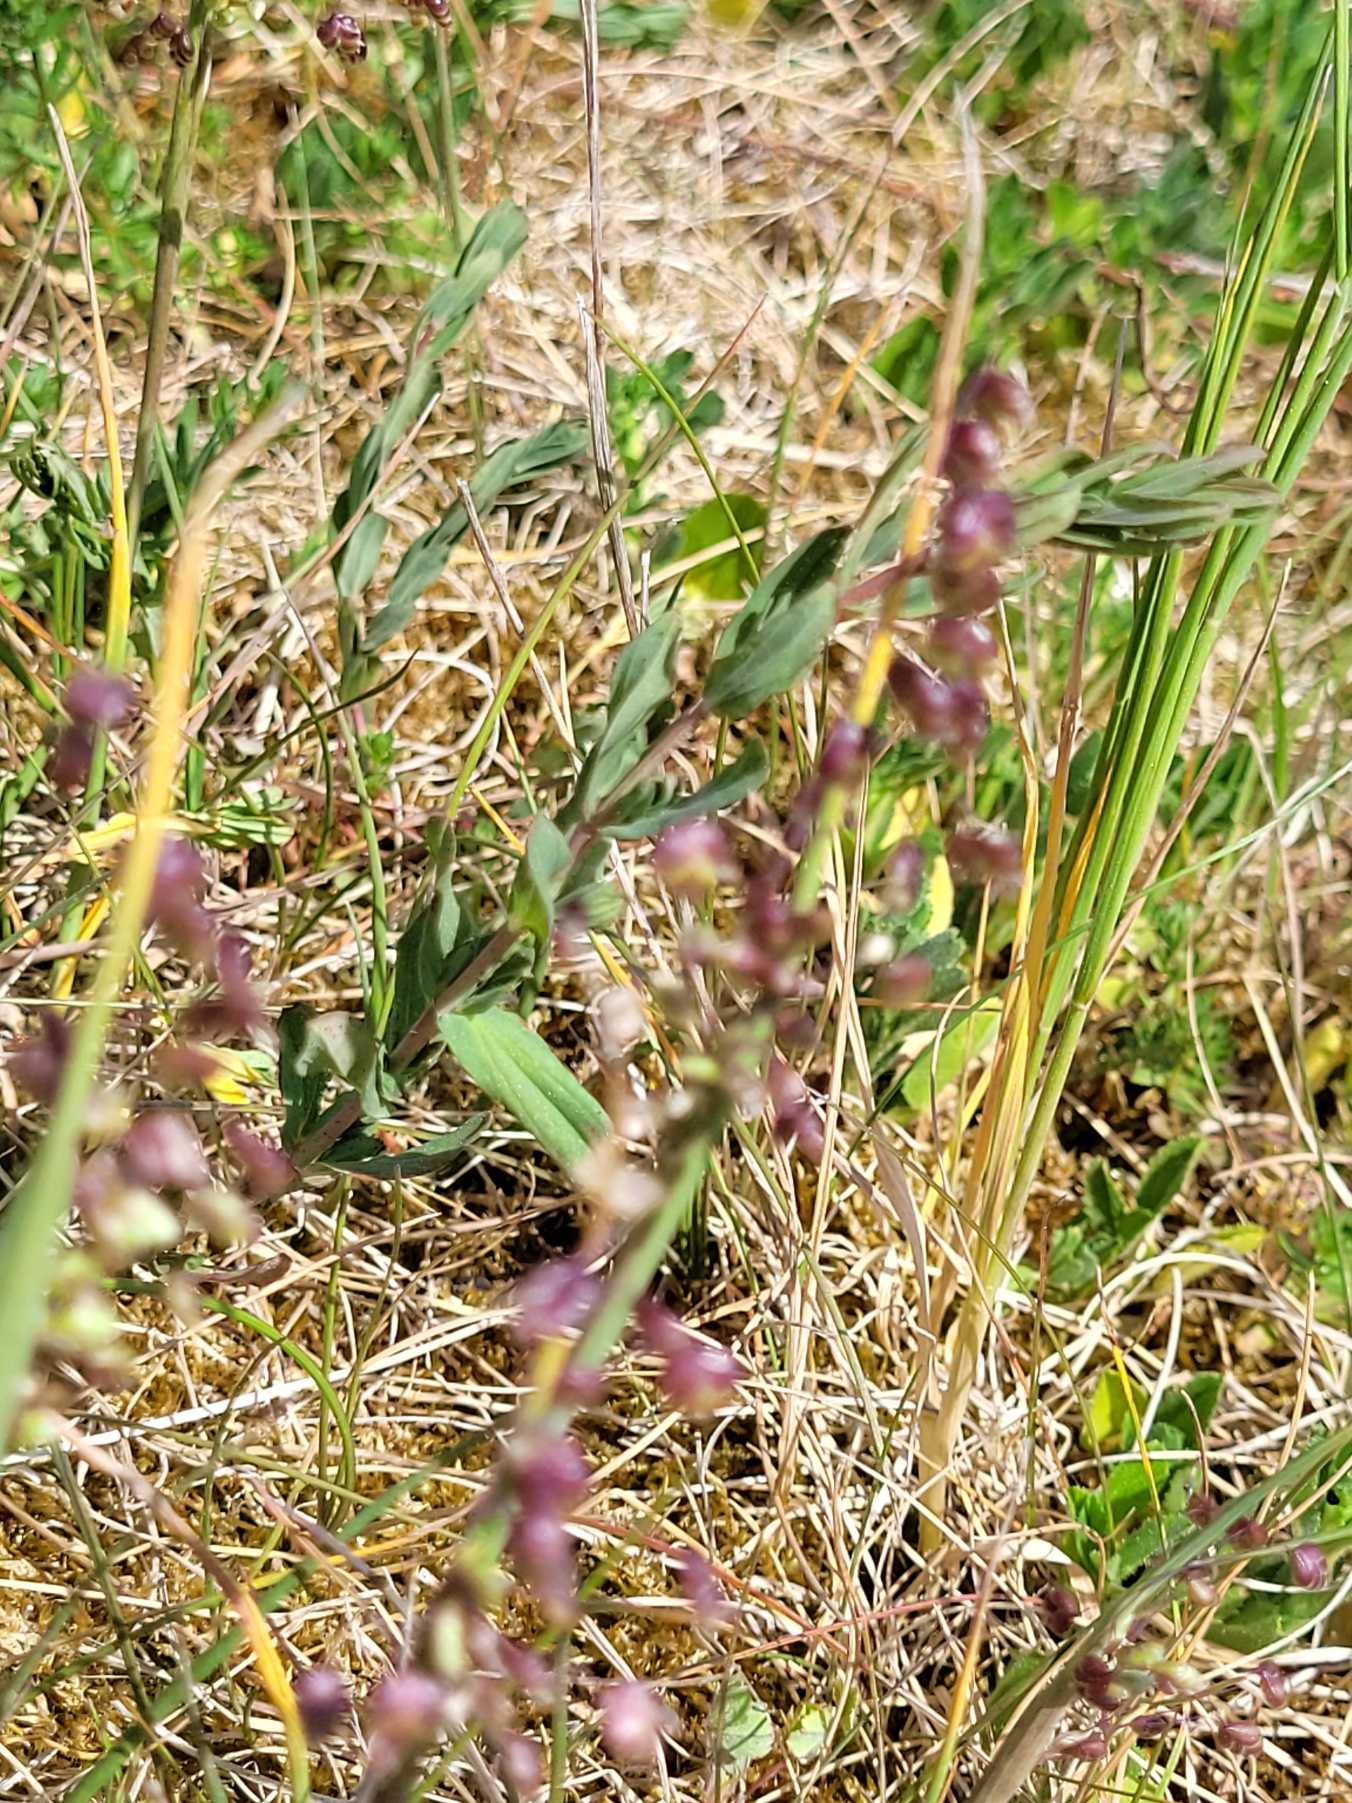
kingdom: Plantae
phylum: Tracheophyta
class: Liliopsida
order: Poales
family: Poaceae
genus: Briza
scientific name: Briza media
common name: Hjertegræs
